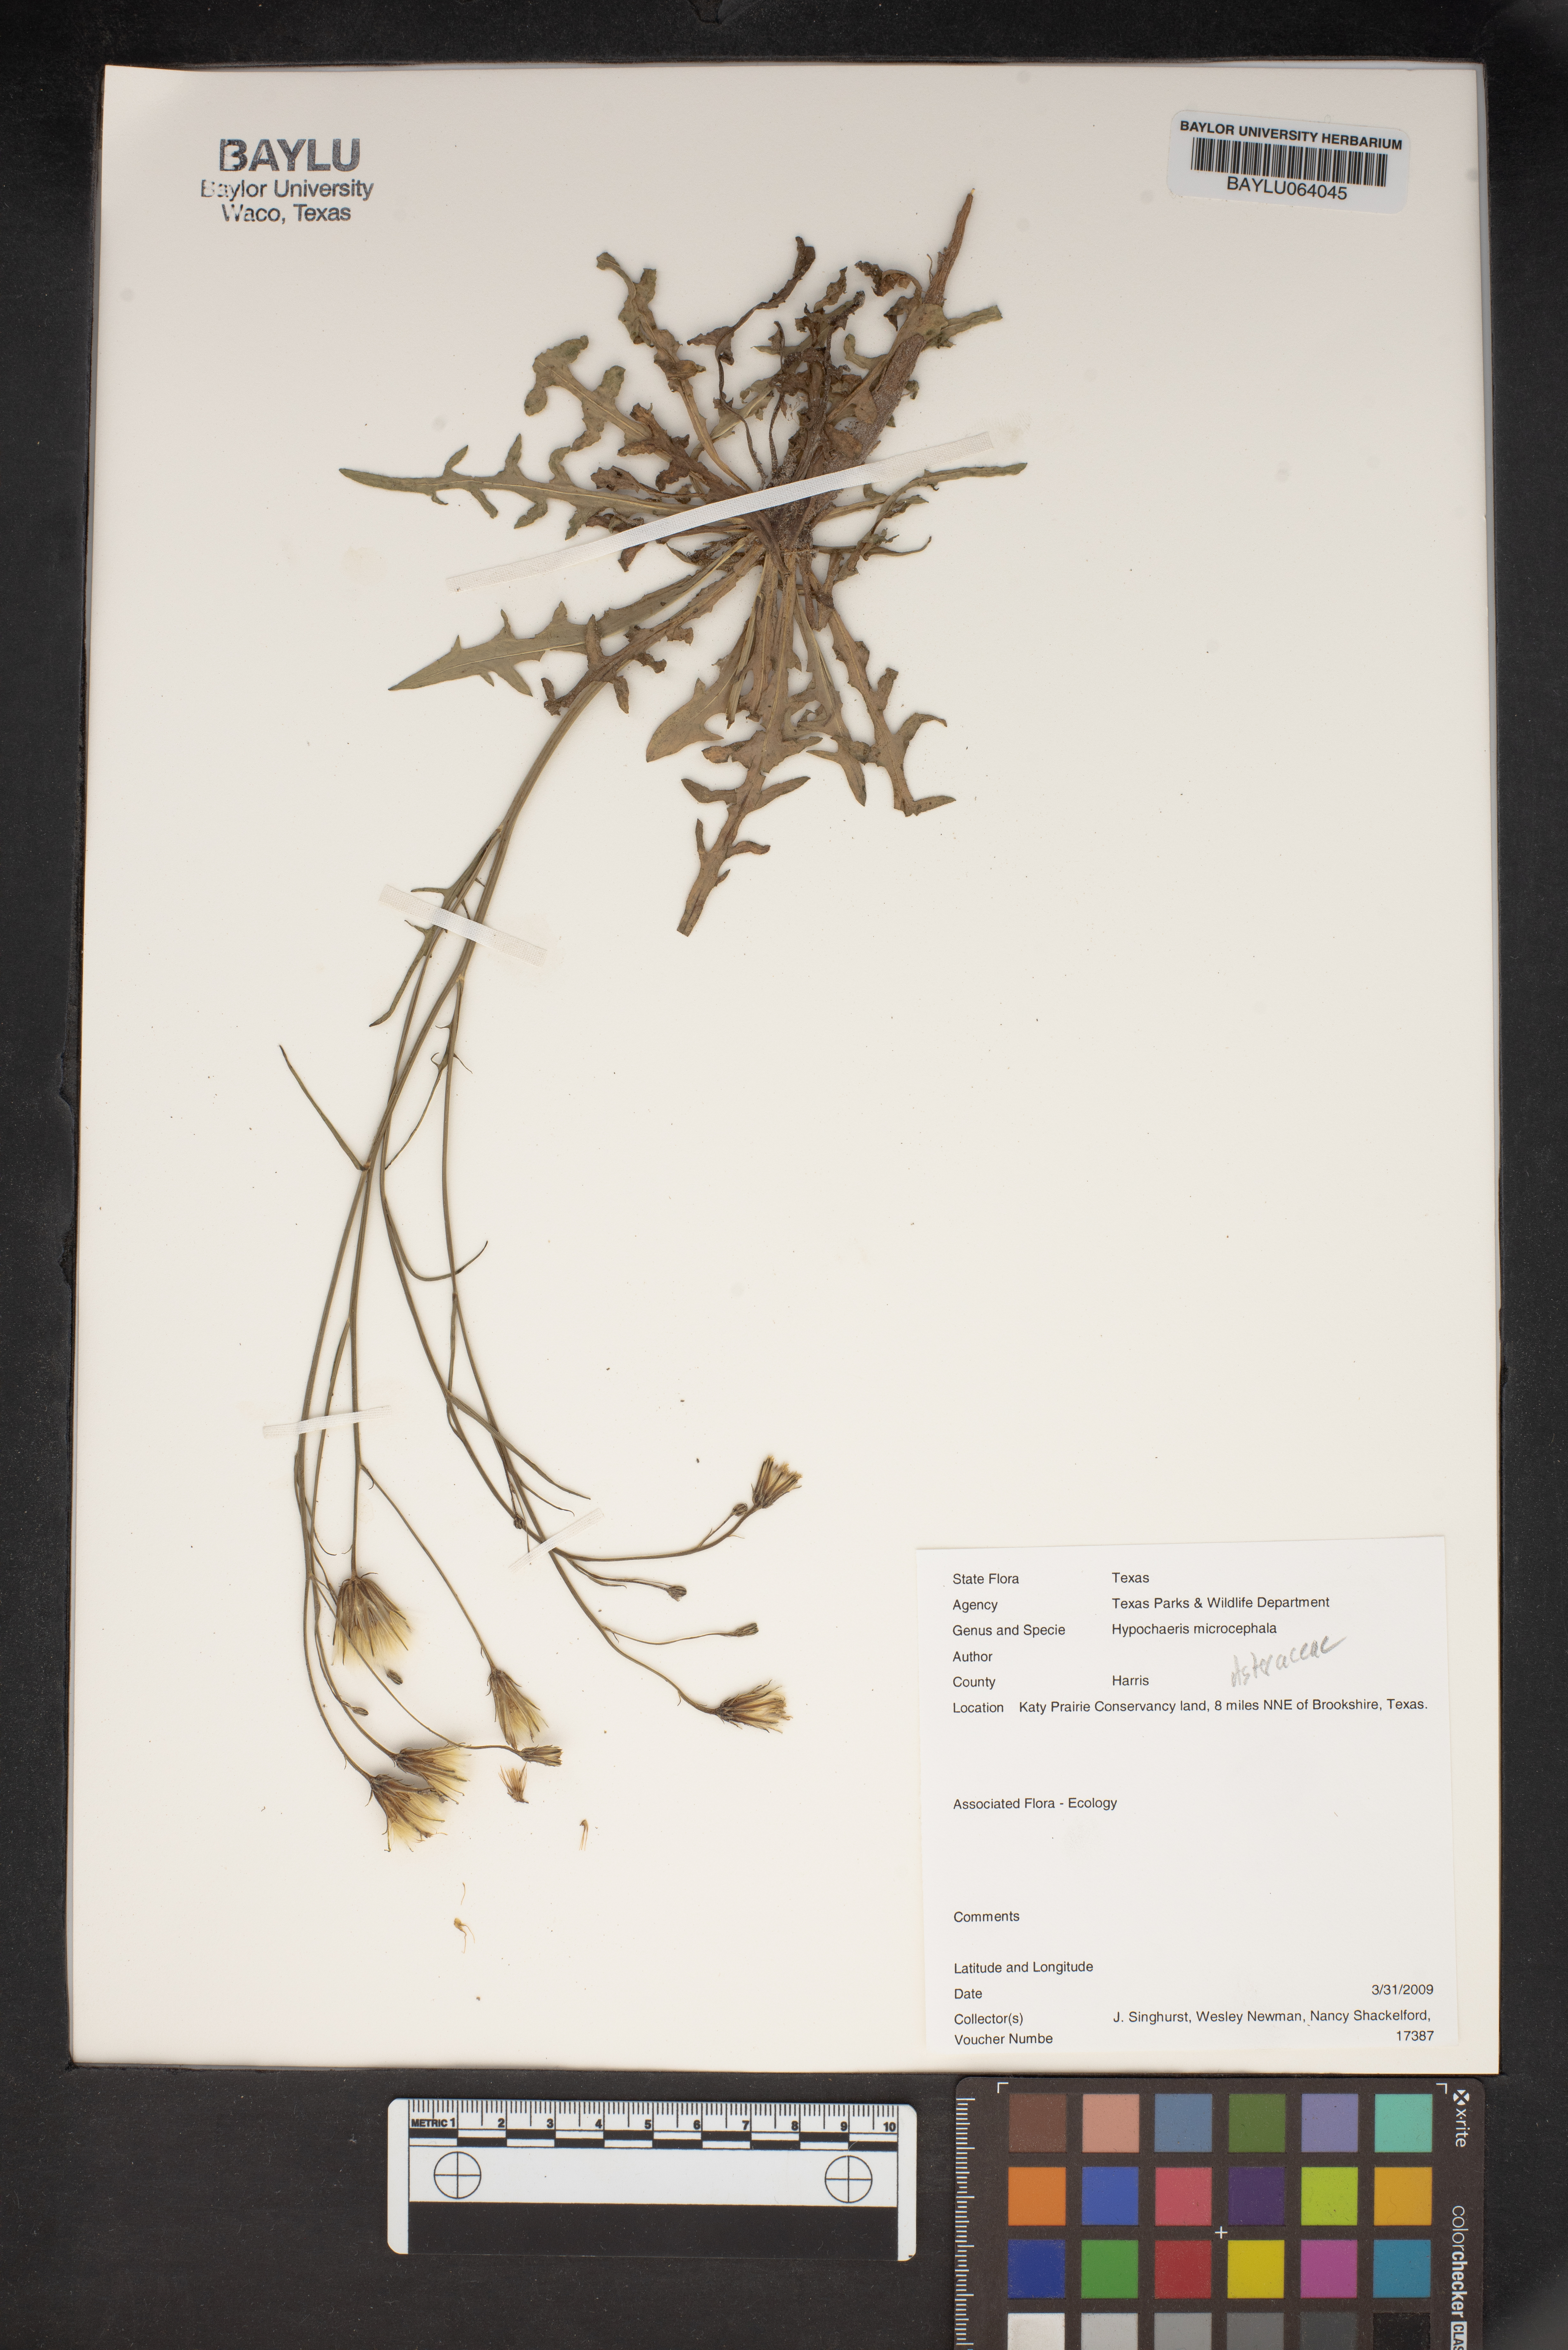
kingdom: Plantae
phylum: Tracheophyta
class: Magnoliopsida
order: Asterales
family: Asteraceae
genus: Hypochaeris
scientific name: Hypochaeris microcephala
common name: White flatweed
